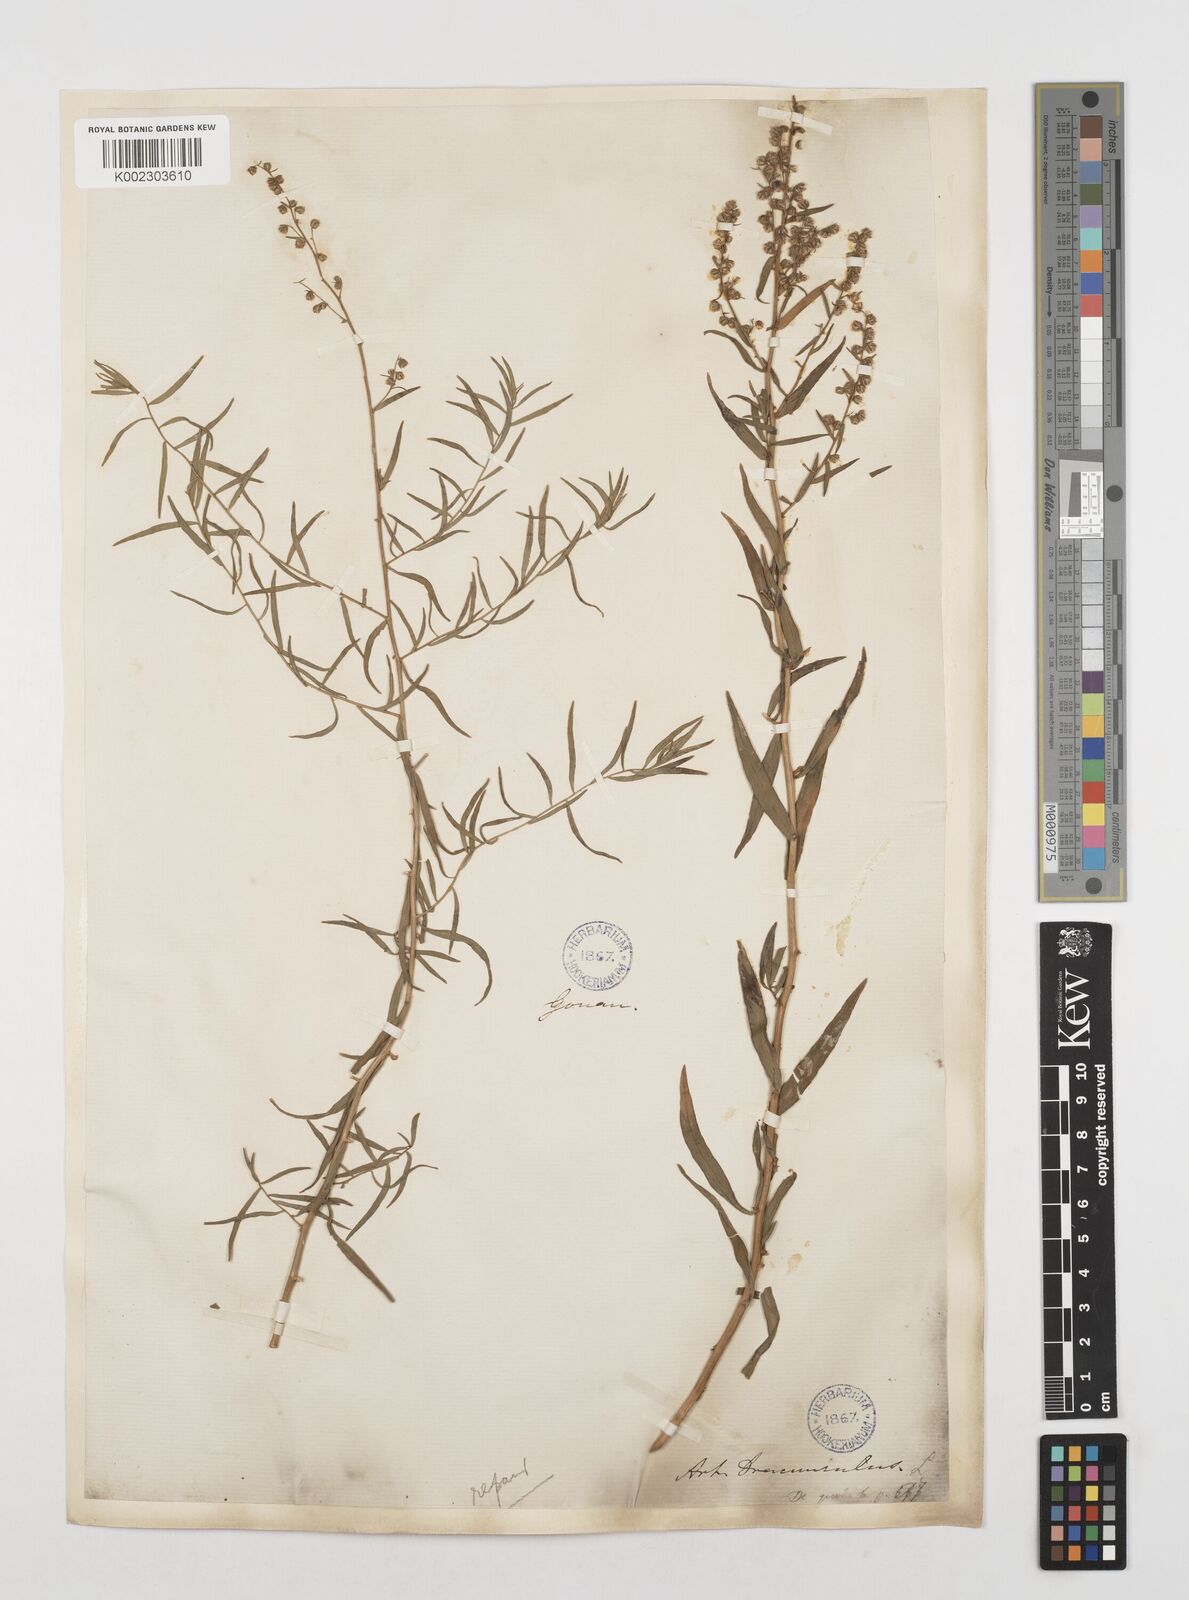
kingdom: Plantae
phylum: Tracheophyta
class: Magnoliopsida
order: Asterales
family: Asteraceae
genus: Artemisia
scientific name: Artemisia dracunculus
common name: Tarragon
